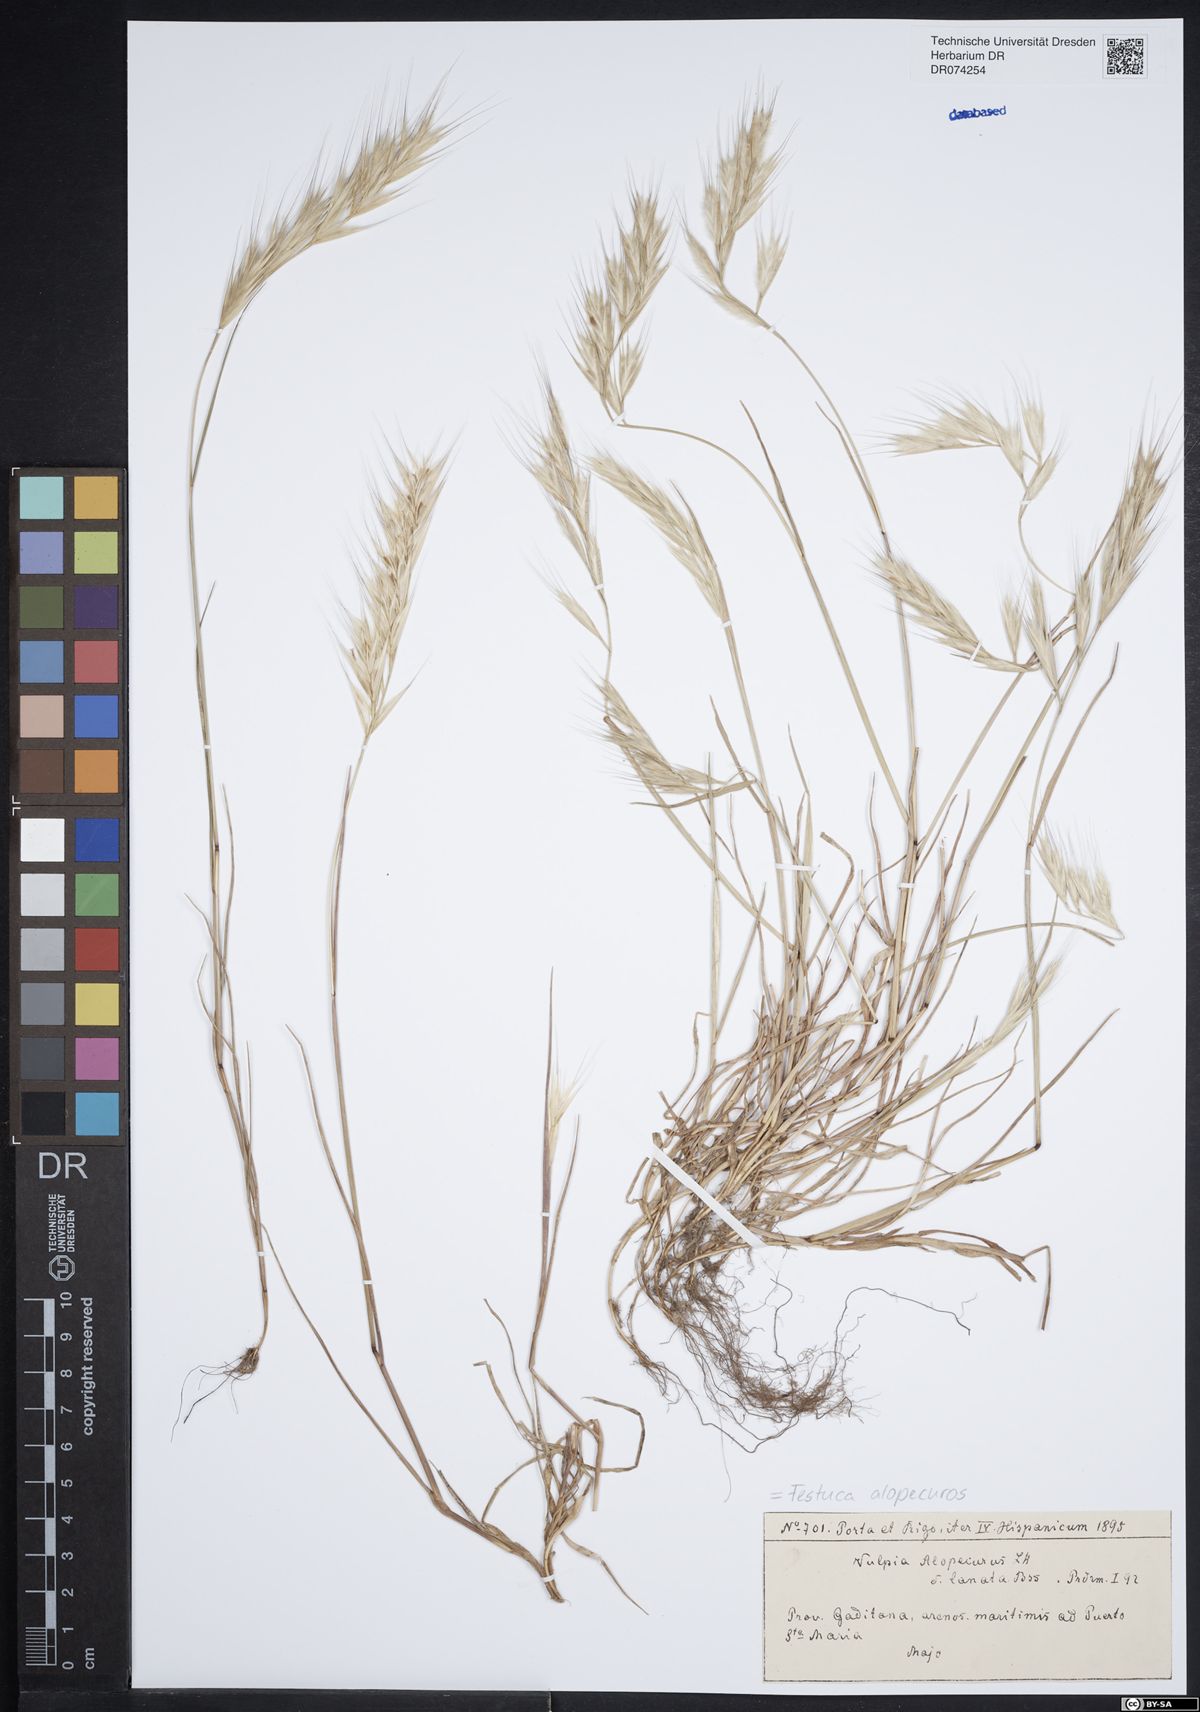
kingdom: Plantae
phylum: Tracheophyta
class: Liliopsida
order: Poales
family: Poaceae
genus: Festuca
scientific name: Festuca alopecuros
